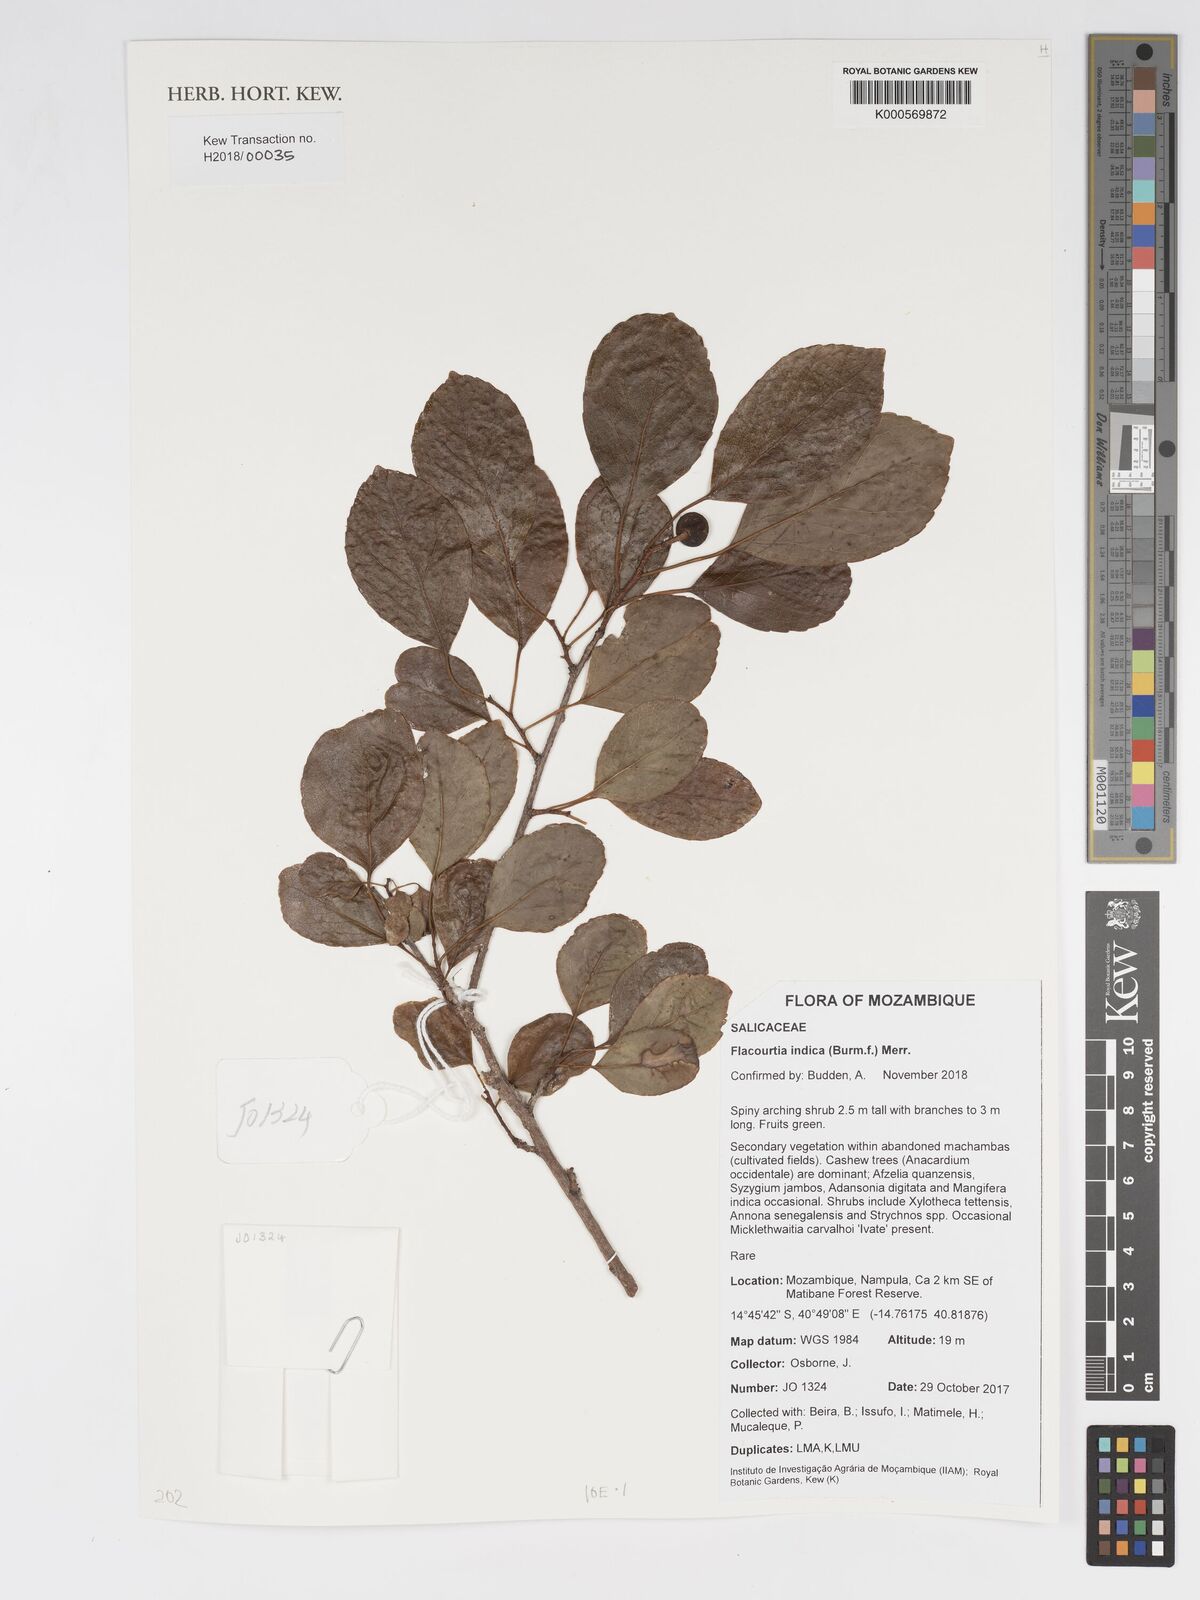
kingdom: Plantae
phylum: Tracheophyta
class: Magnoliopsida
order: Malpighiales
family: Salicaceae
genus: Flacourtia
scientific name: Flacourtia indica
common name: Governor's plum
